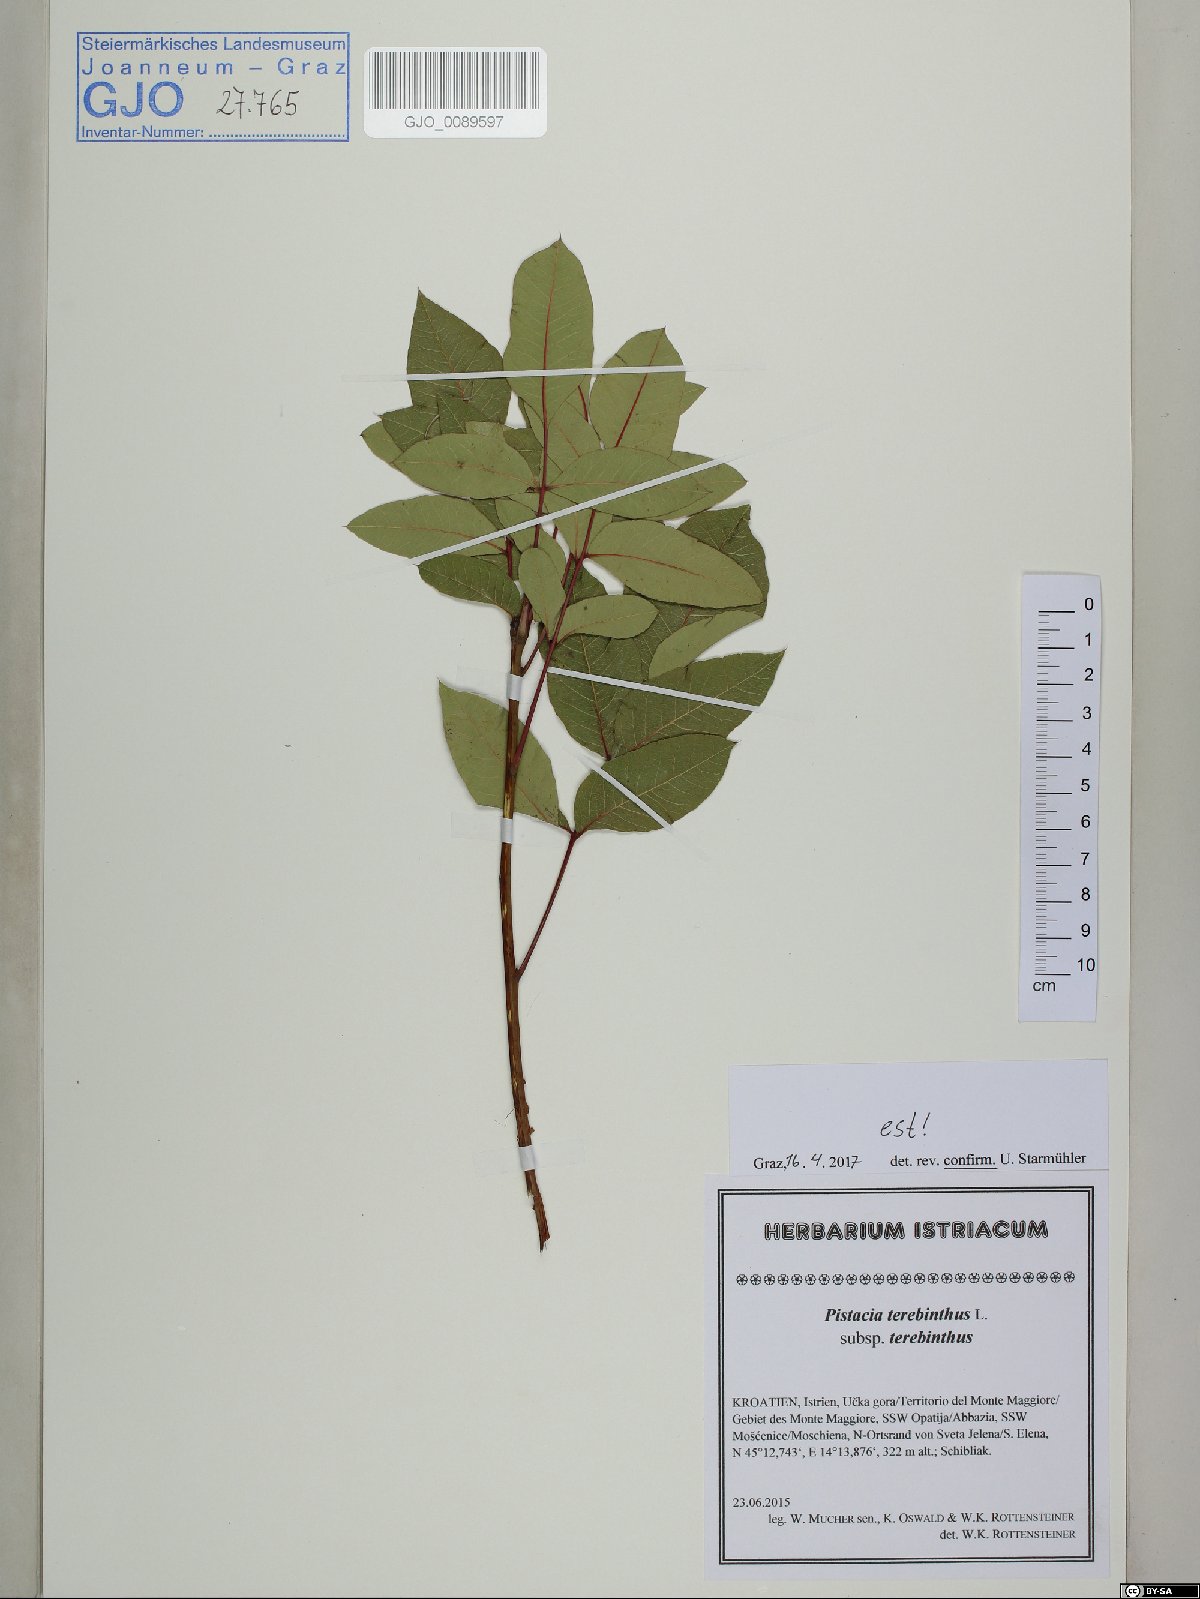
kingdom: Plantae
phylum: Tracheophyta
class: Magnoliopsida
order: Sapindales
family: Anacardiaceae
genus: Pistacia
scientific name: Pistacia terebinthus
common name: Terebinth
